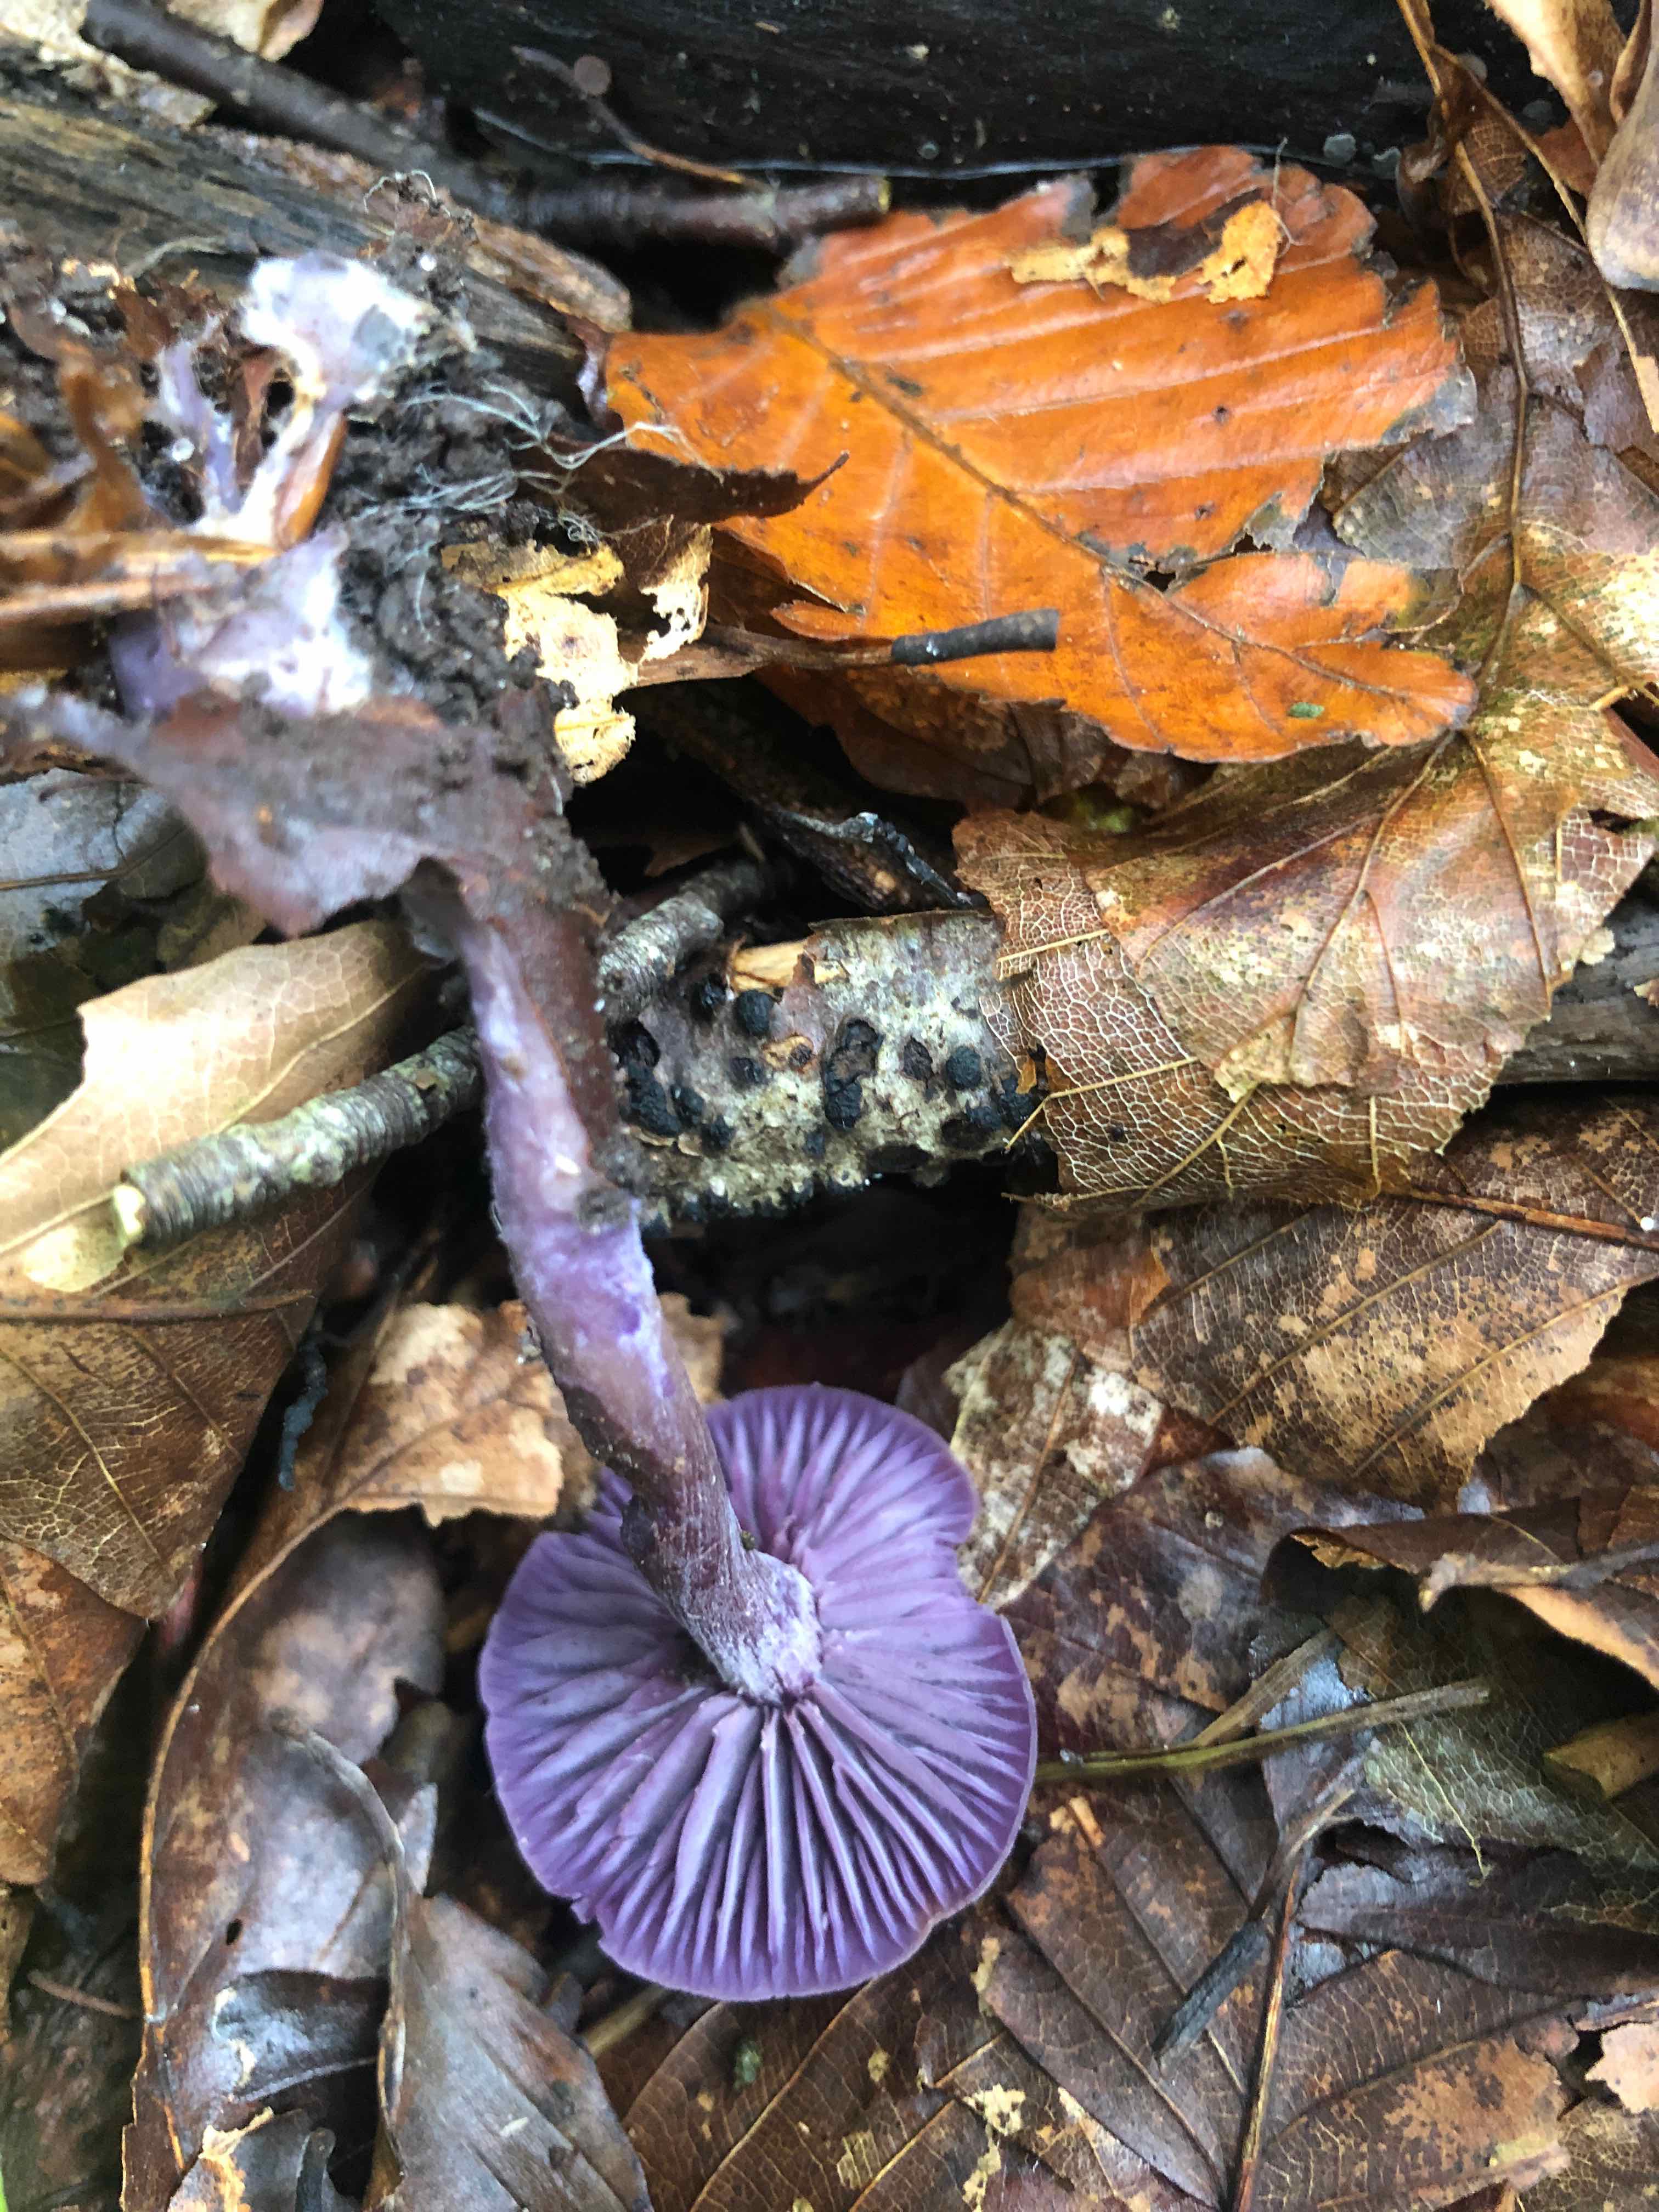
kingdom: Fungi
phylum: Basidiomycota
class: Agaricomycetes
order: Agaricales
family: Hydnangiaceae
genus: Laccaria
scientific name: Laccaria amethystina
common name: violet ametysthat
